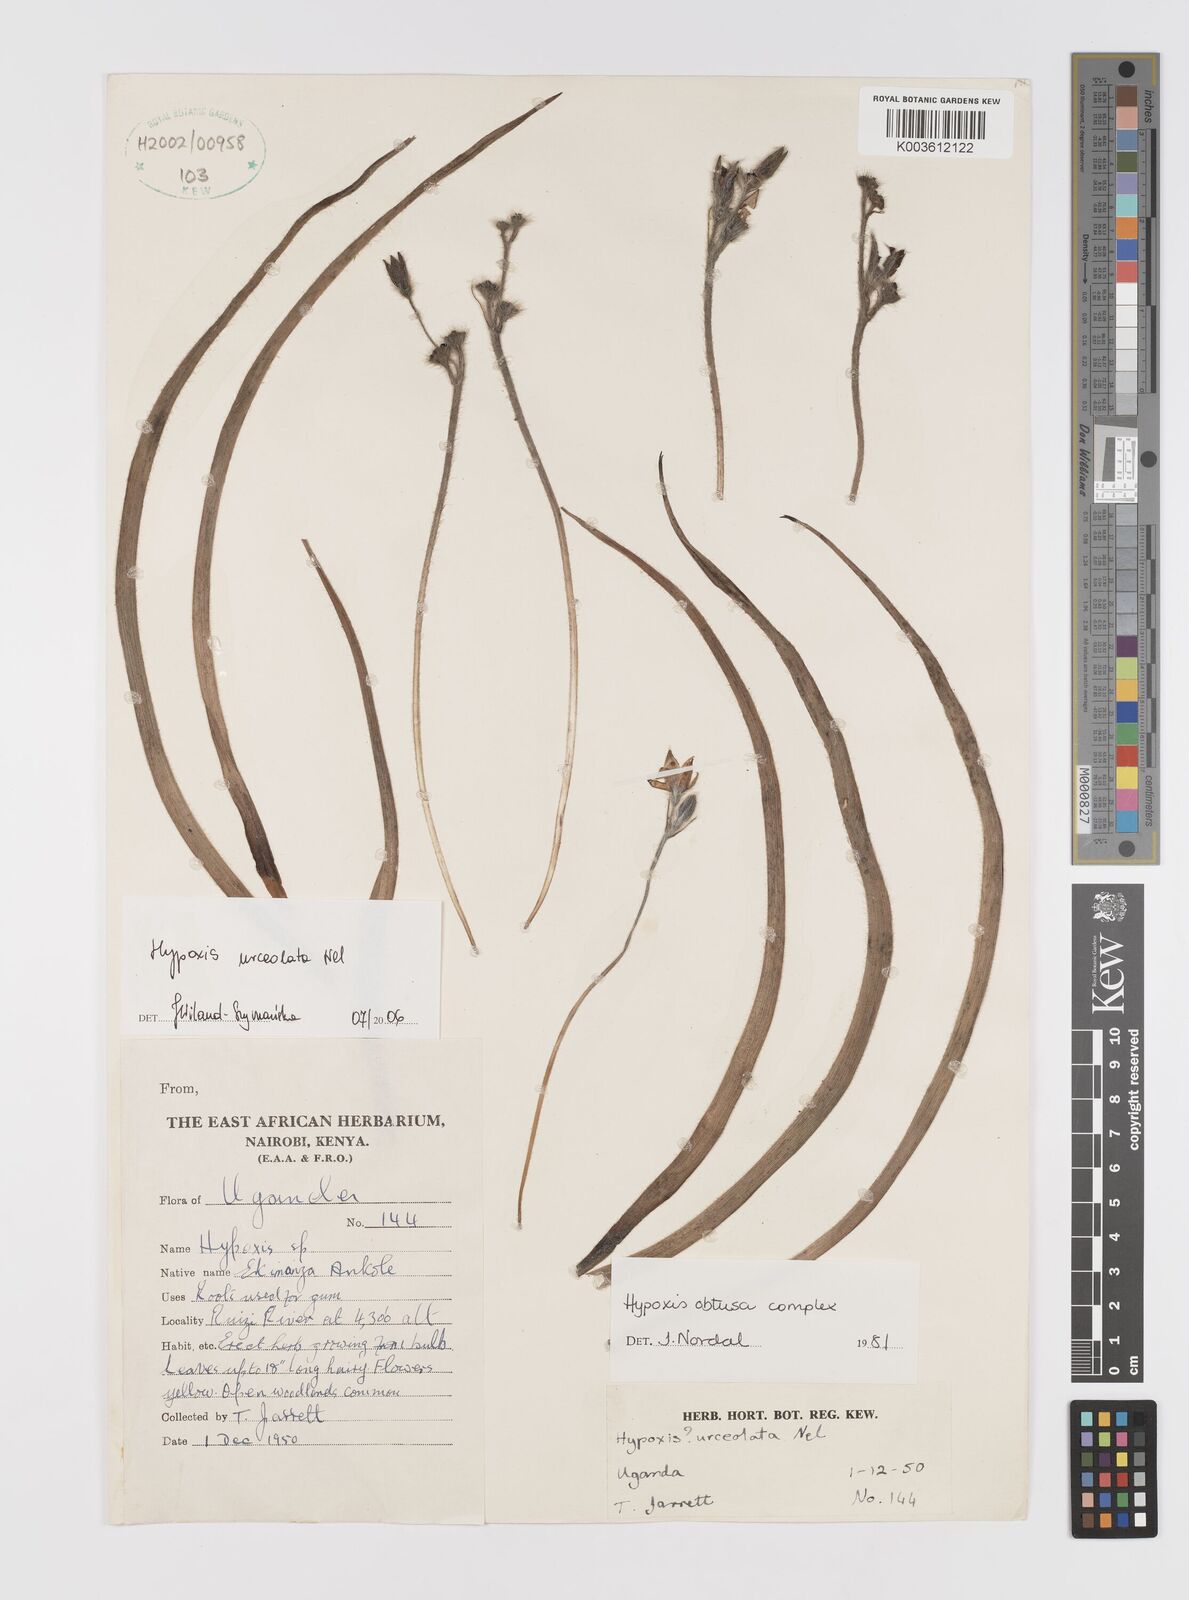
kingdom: Plantae
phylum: Tracheophyta
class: Liliopsida
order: Asparagales
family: Hypoxidaceae
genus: Hypoxis
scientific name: Hypoxis urceolata
